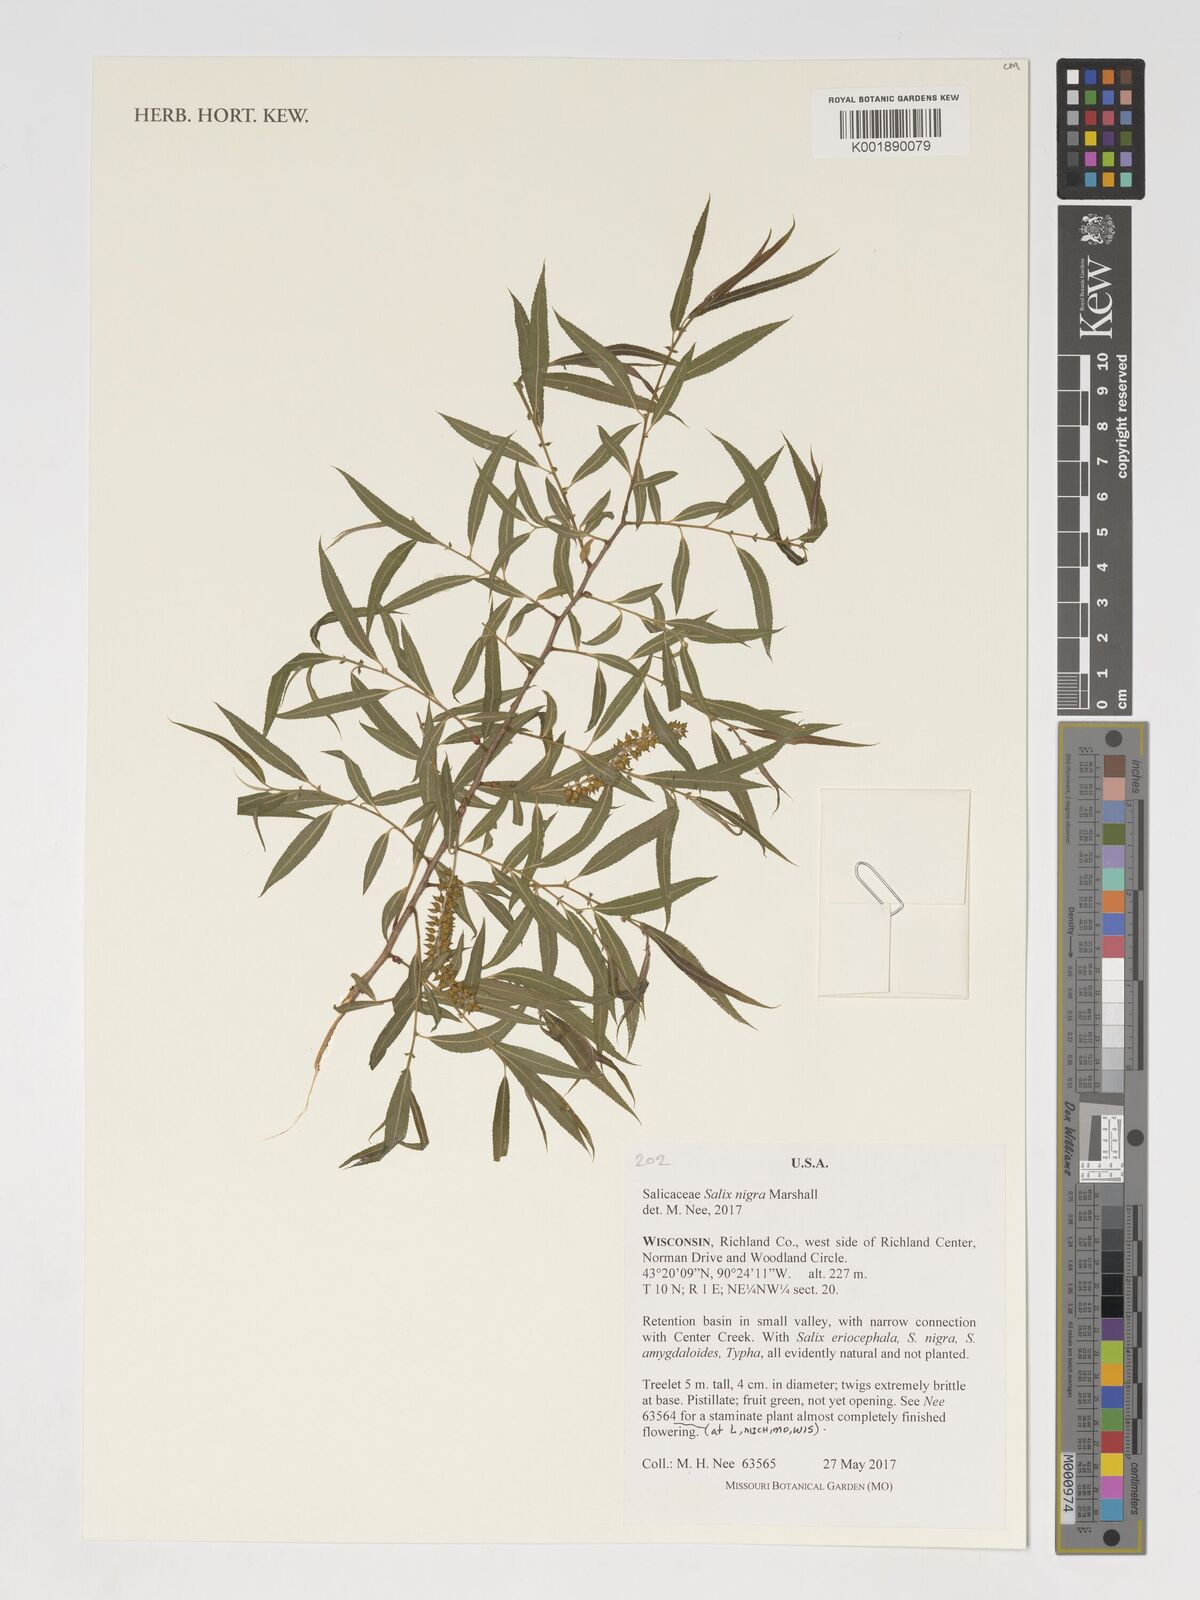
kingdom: Plantae
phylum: Tracheophyta
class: Magnoliopsida
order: Malpighiales
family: Salicaceae
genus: Salix
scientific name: Salix nigra
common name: Black willow
